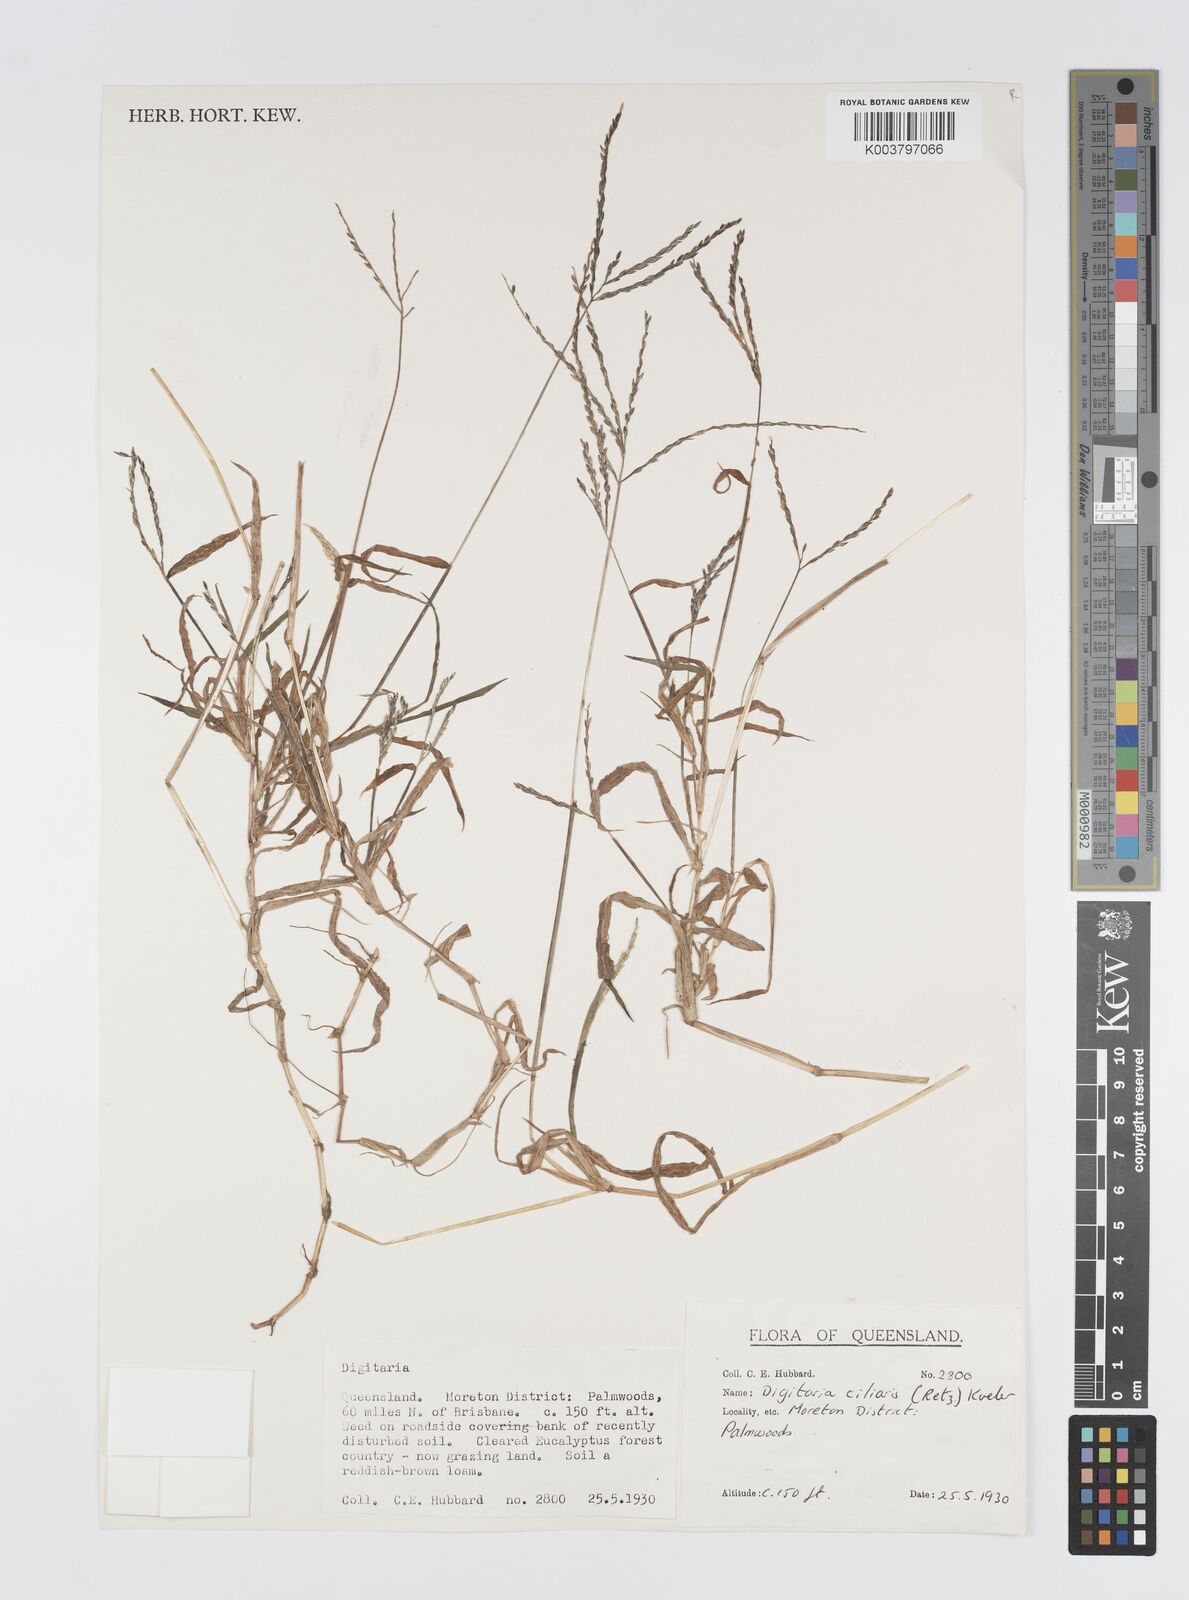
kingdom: Plantae
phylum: Tracheophyta
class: Liliopsida
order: Poales
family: Poaceae
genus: Digitaria
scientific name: Digitaria ciliaris
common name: Tropical finger-grass
